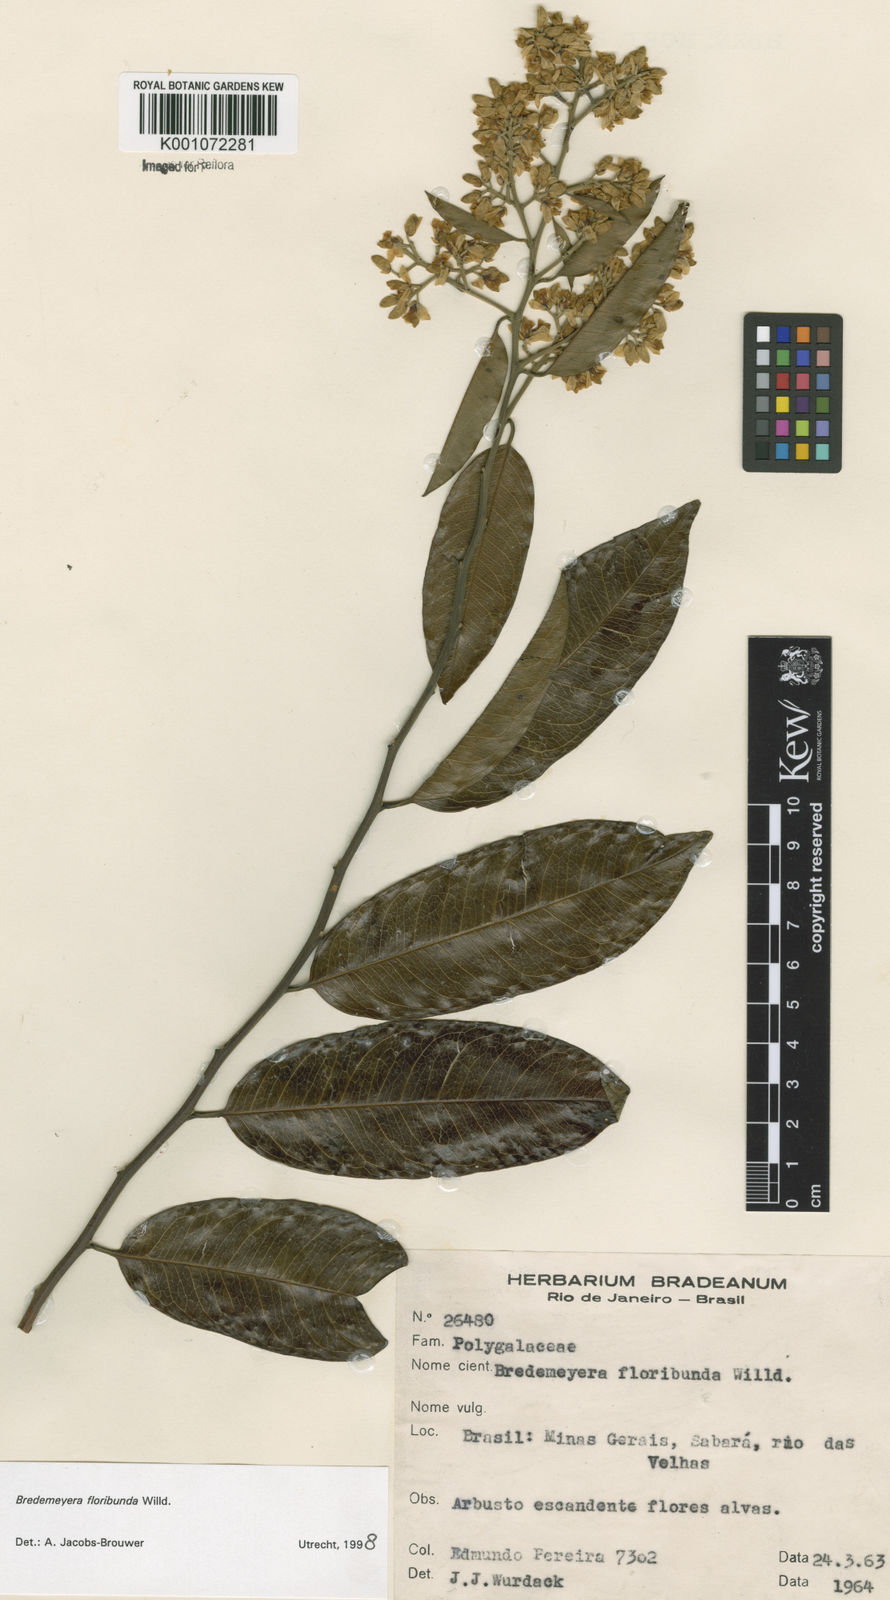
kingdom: Plantae
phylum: Tracheophyta
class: Magnoliopsida
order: Fabales
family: Polygalaceae
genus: Bredemeyera
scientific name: Bredemeyera floribunda
